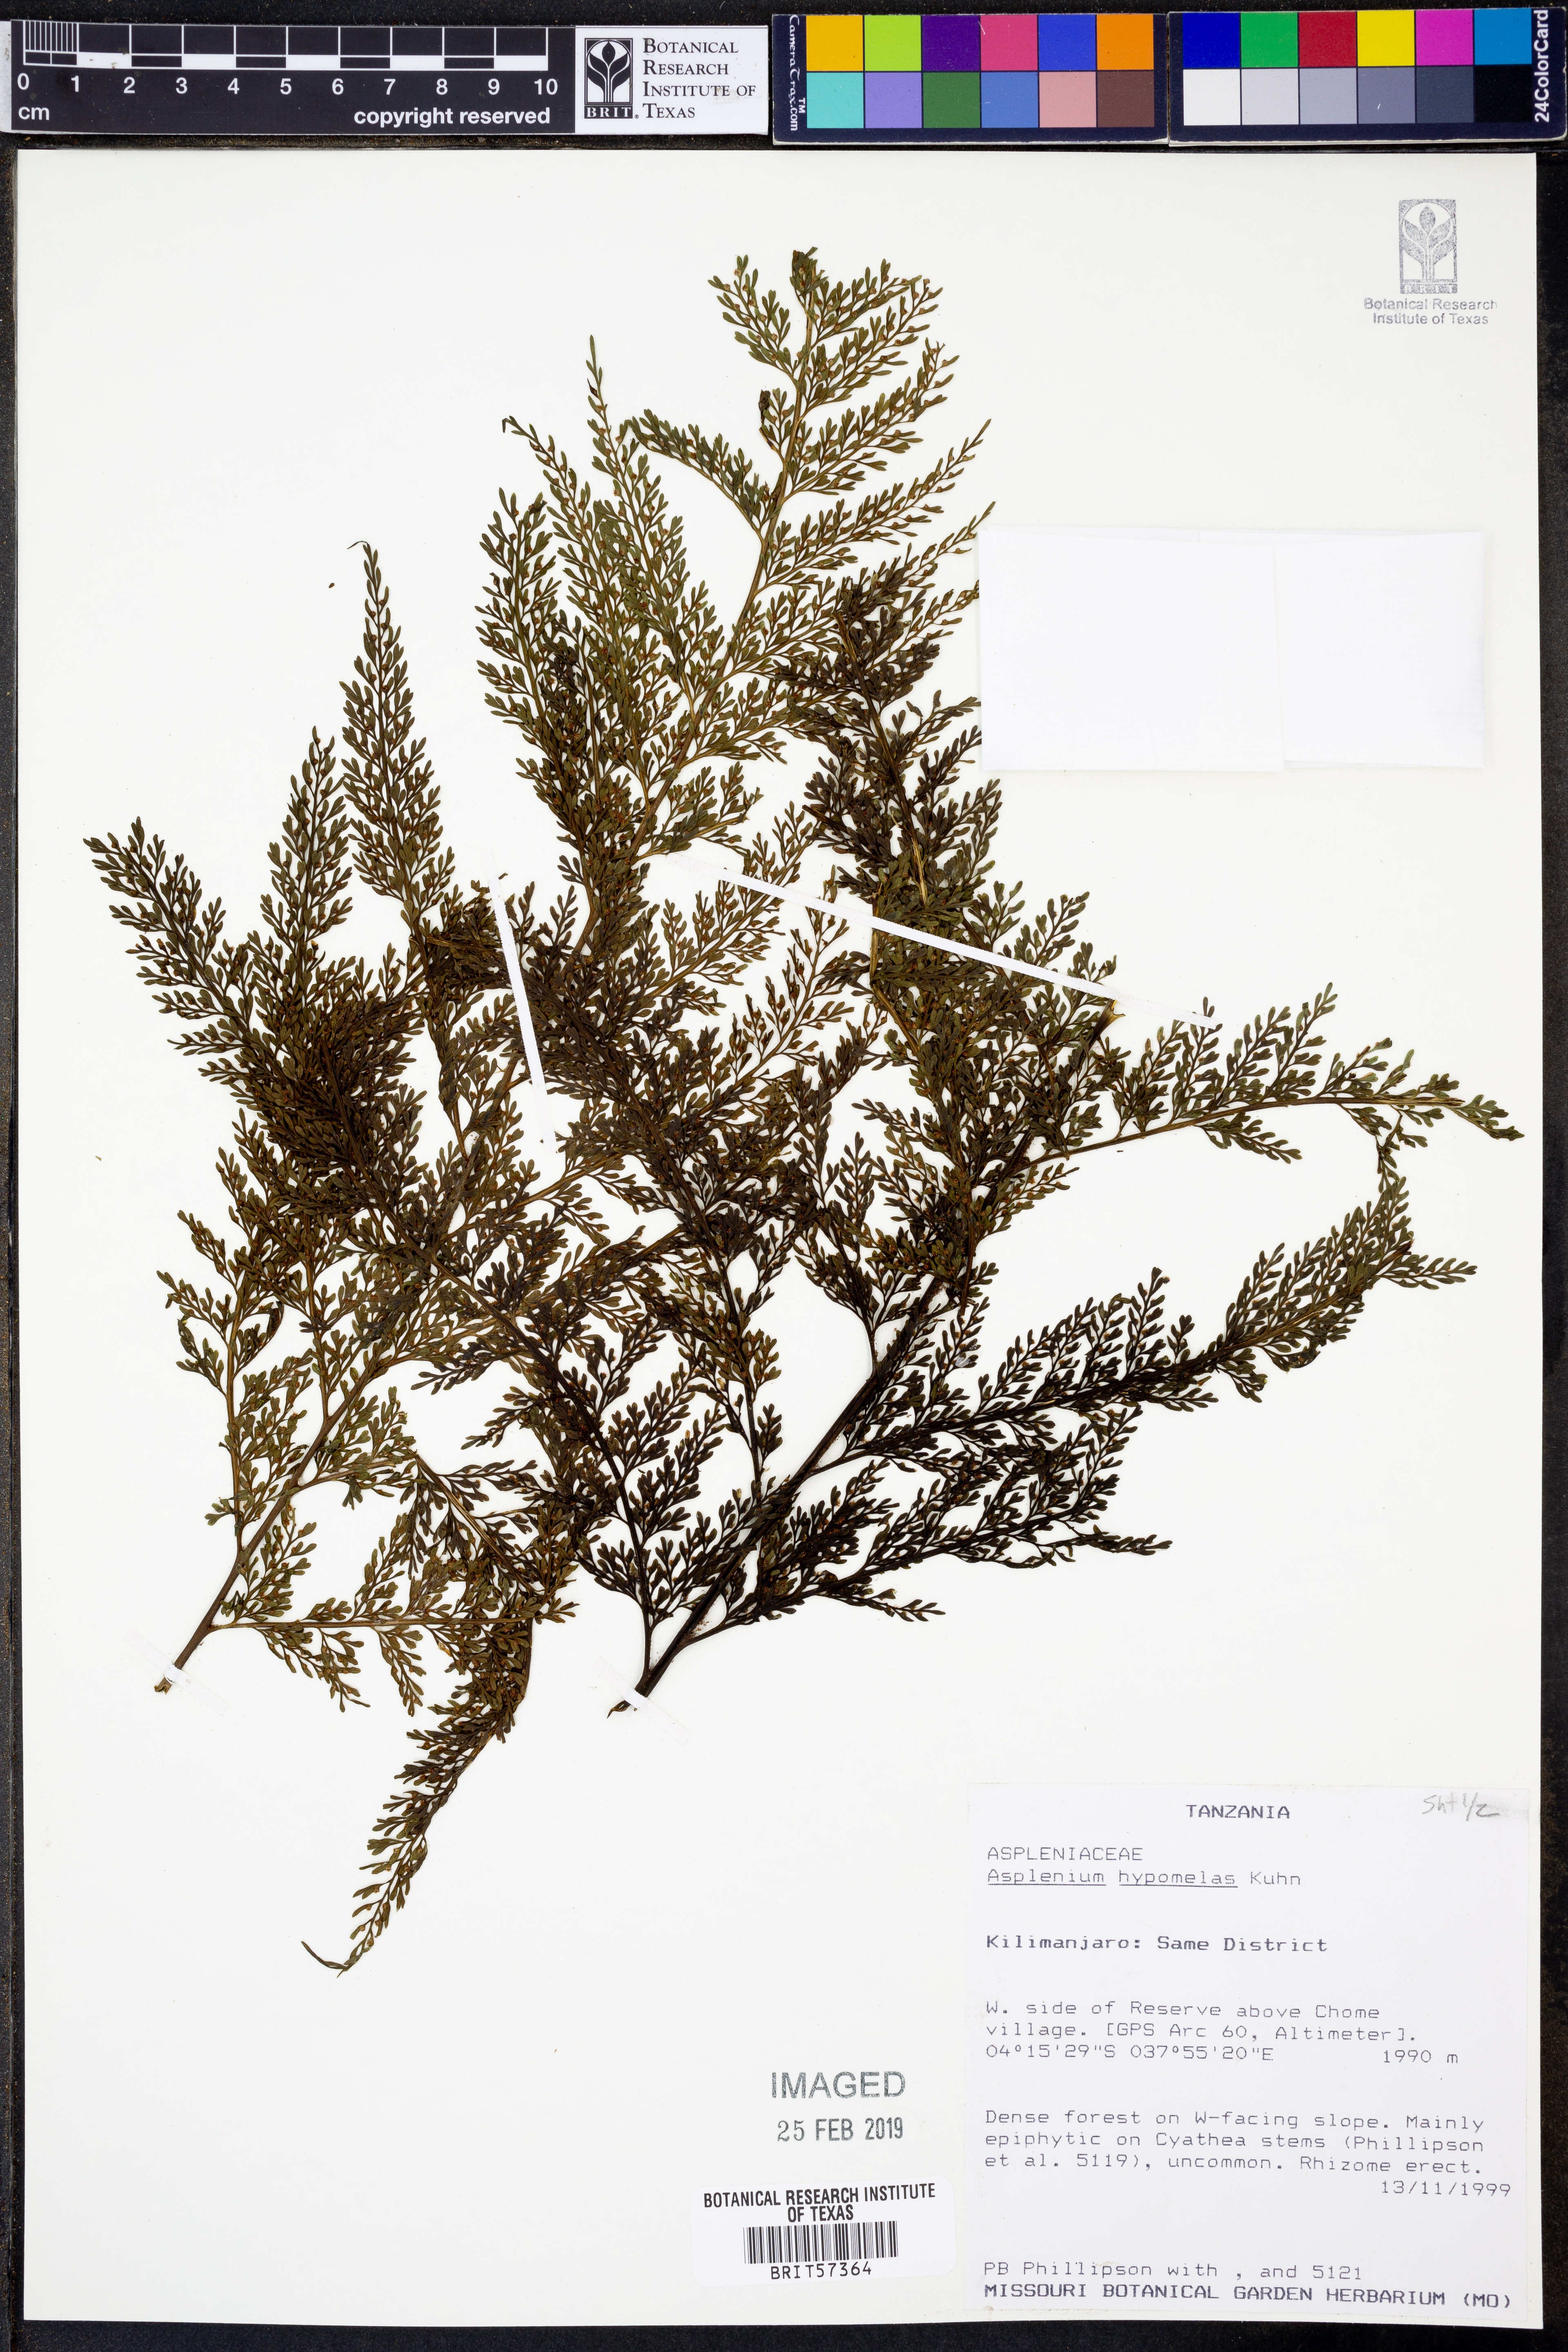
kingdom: Plantae
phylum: Tracheophyta
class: Polypodiopsida
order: Polypodiales
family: Aspleniaceae
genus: Asplenium
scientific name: Asplenium hypomelas
